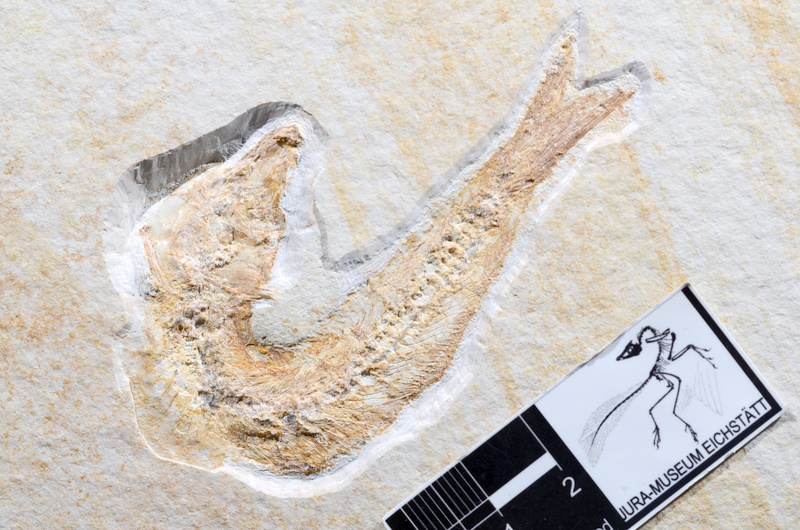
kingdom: Animalia
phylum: Chordata
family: Allothrissopidae
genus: Allothrissops
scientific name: Allothrissops mesogaster
